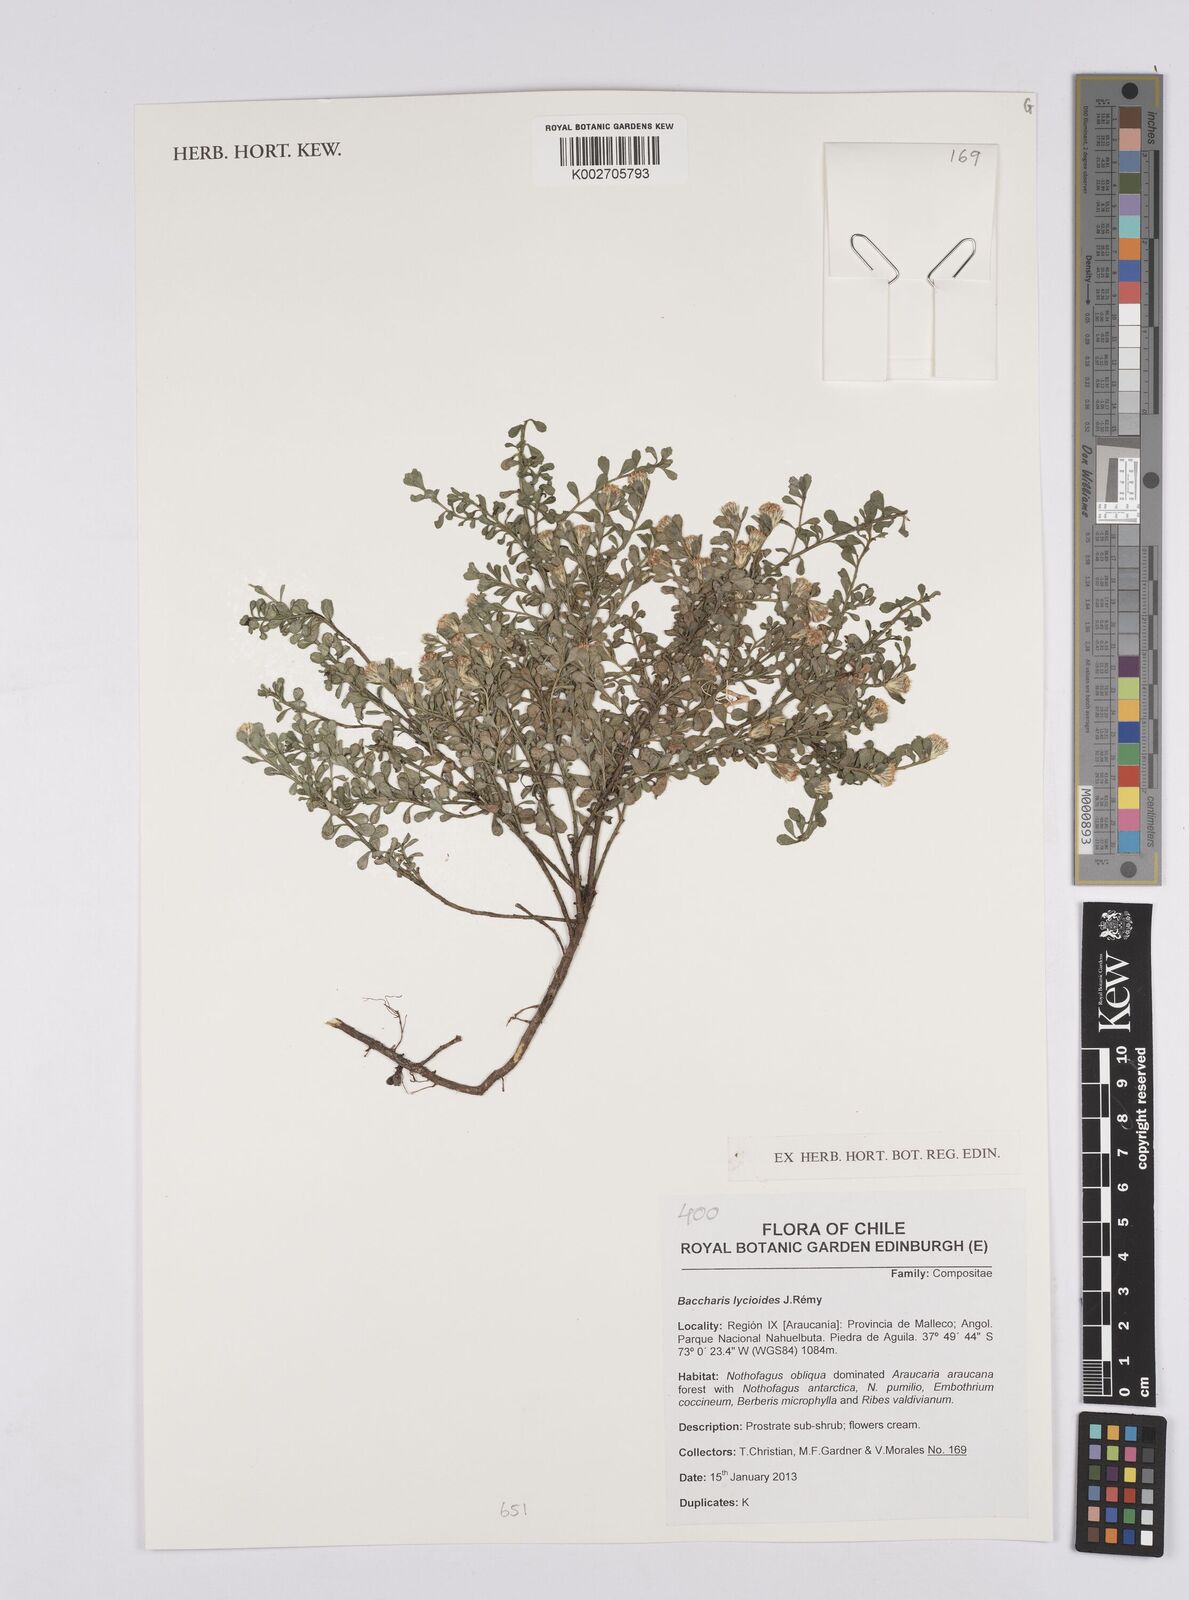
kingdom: Plantae
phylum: Tracheophyta
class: Magnoliopsida
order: Asterales
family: Asteraceae
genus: Baccharis
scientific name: Baccharis lycioides
